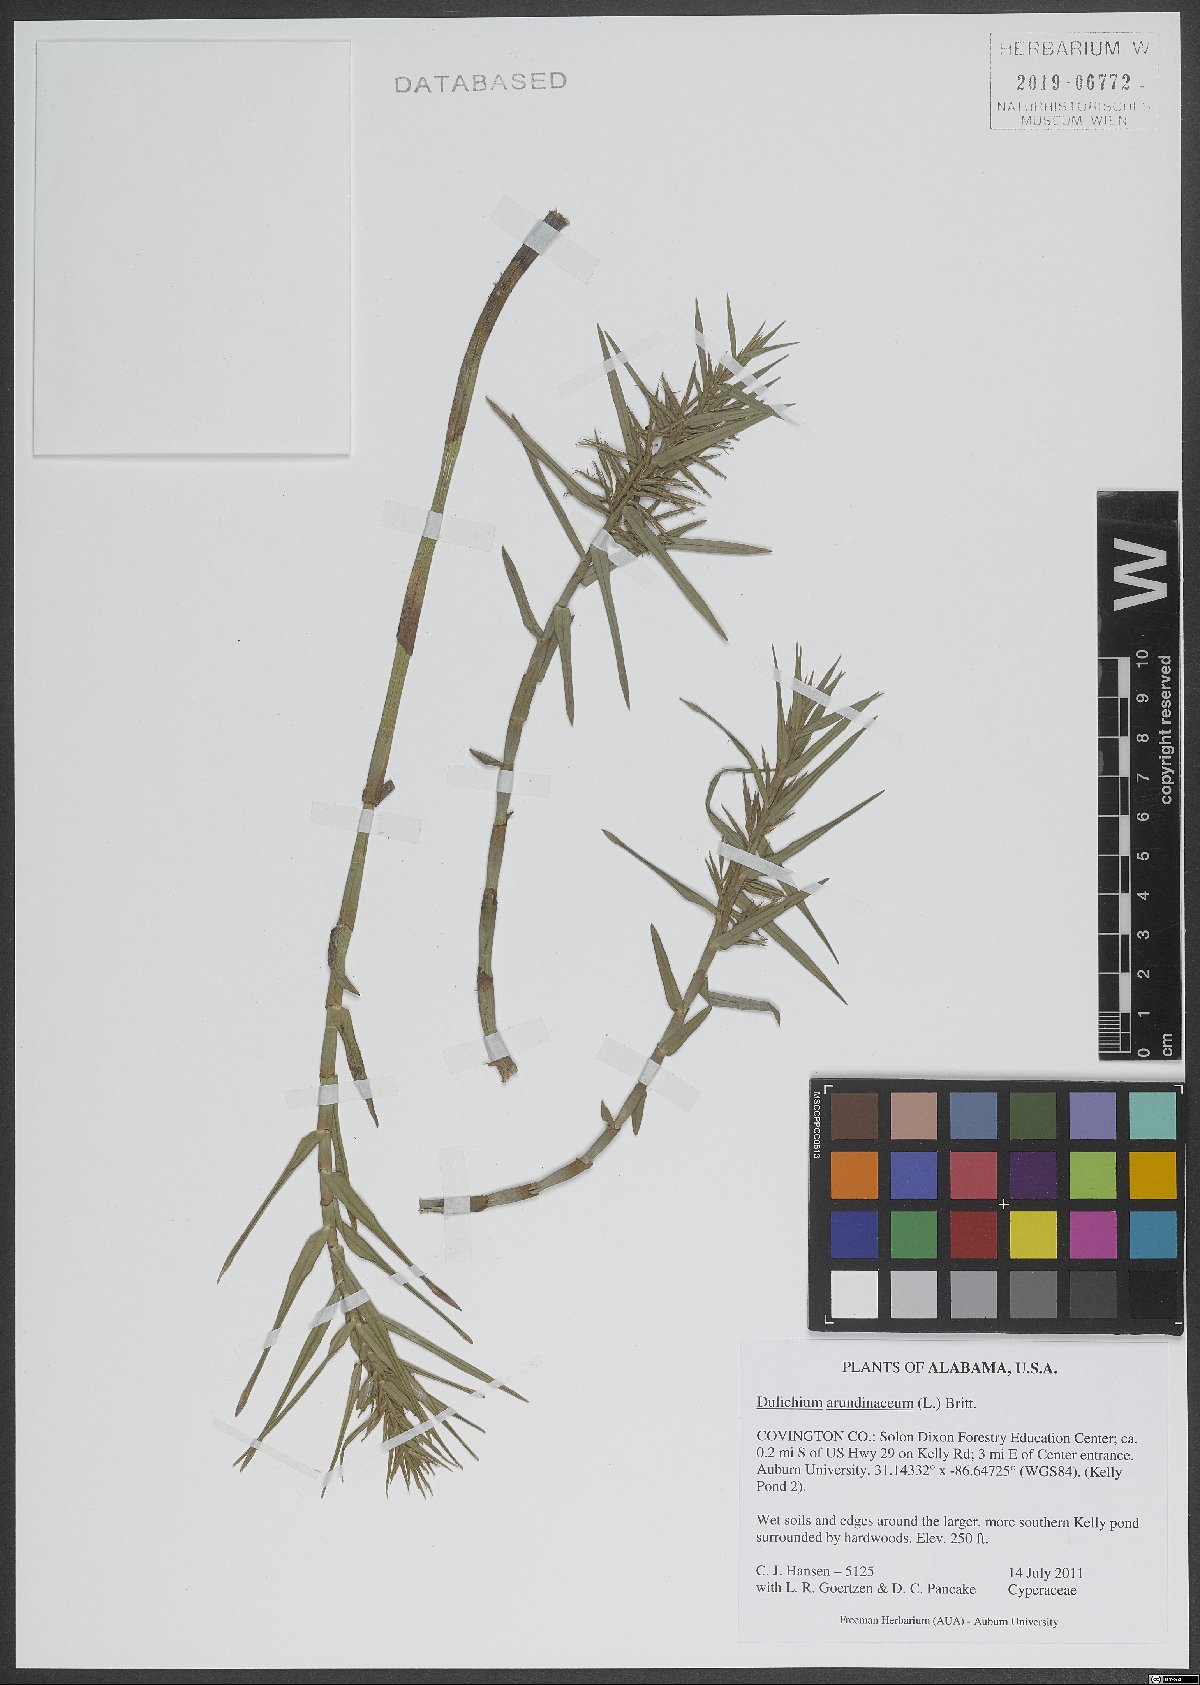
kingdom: Plantae
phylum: Tracheophyta
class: Liliopsida
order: Poales
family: Cyperaceae
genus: Dulichium
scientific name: Dulichium arundinaceum
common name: Three-way sedge
